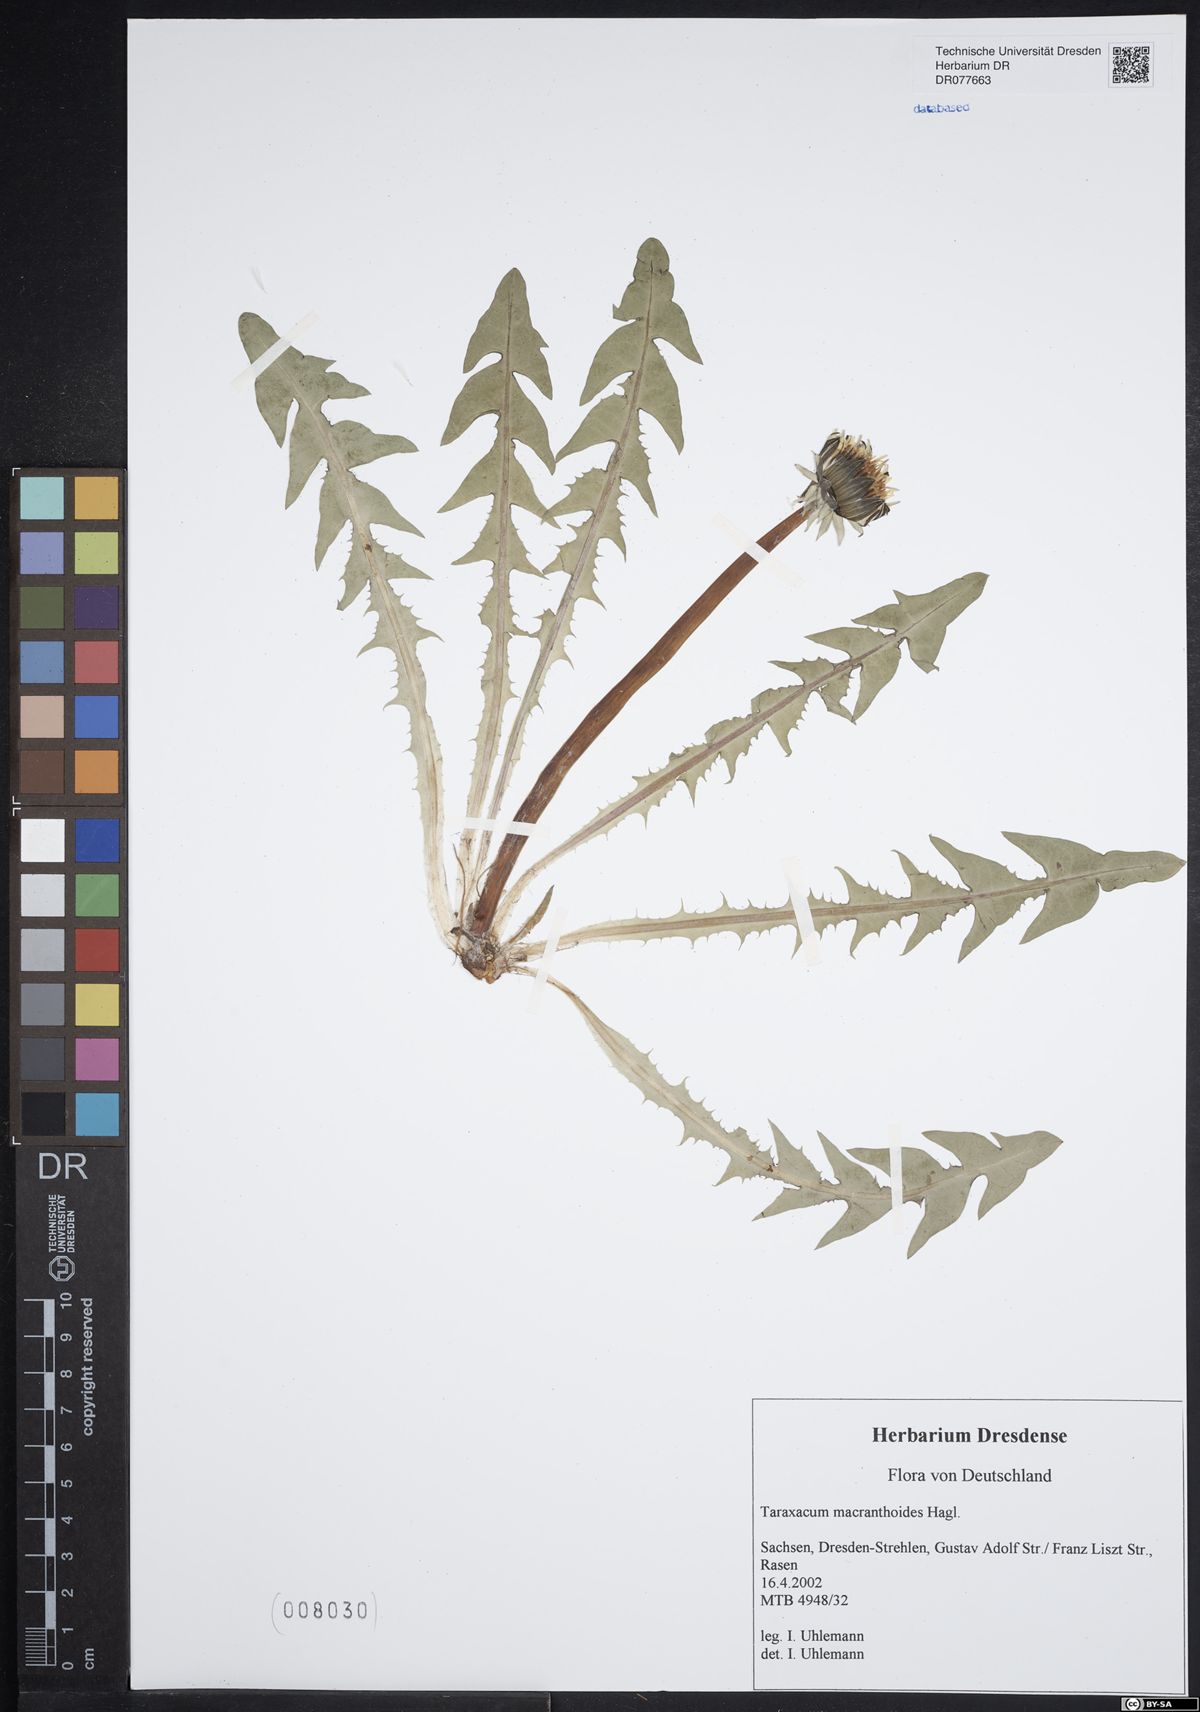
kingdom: Plantae
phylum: Tracheophyta
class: Magnoliopsida
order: Asterales
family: Asteraceae
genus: Taraxacum
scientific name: Taraxacum macranthoides
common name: Large-flowered dandelion
